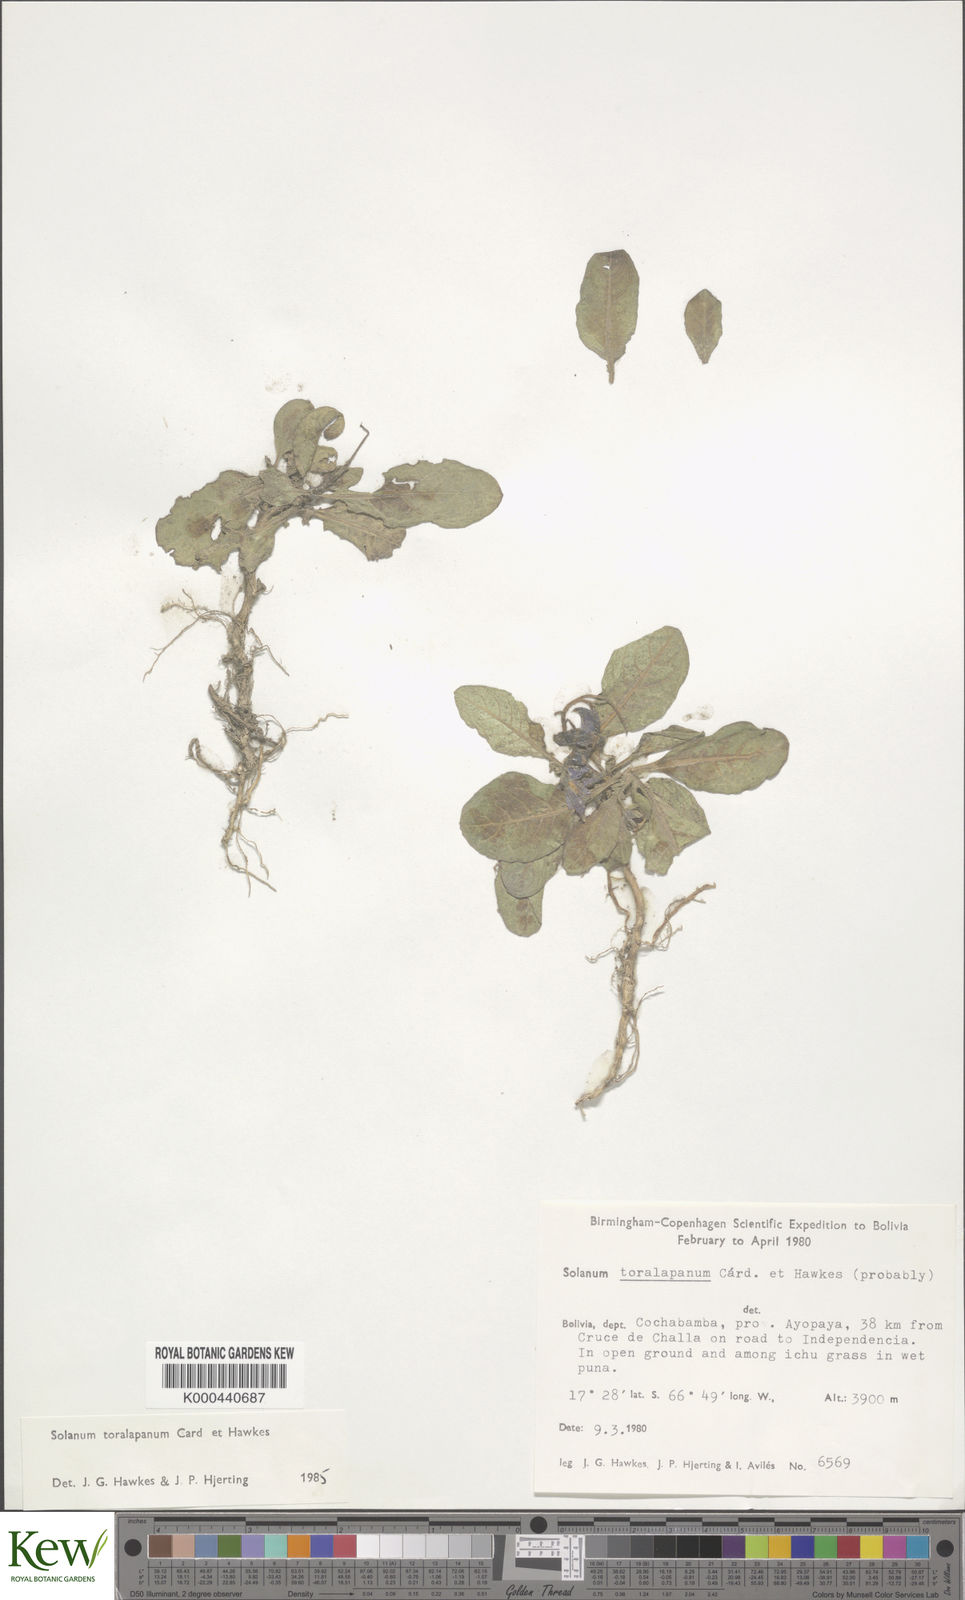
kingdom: Plantae
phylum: Tracheophyta
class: Magnoliopsida
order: Solanales
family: Solanaceae
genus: Solanum
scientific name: Solanum boliviense
